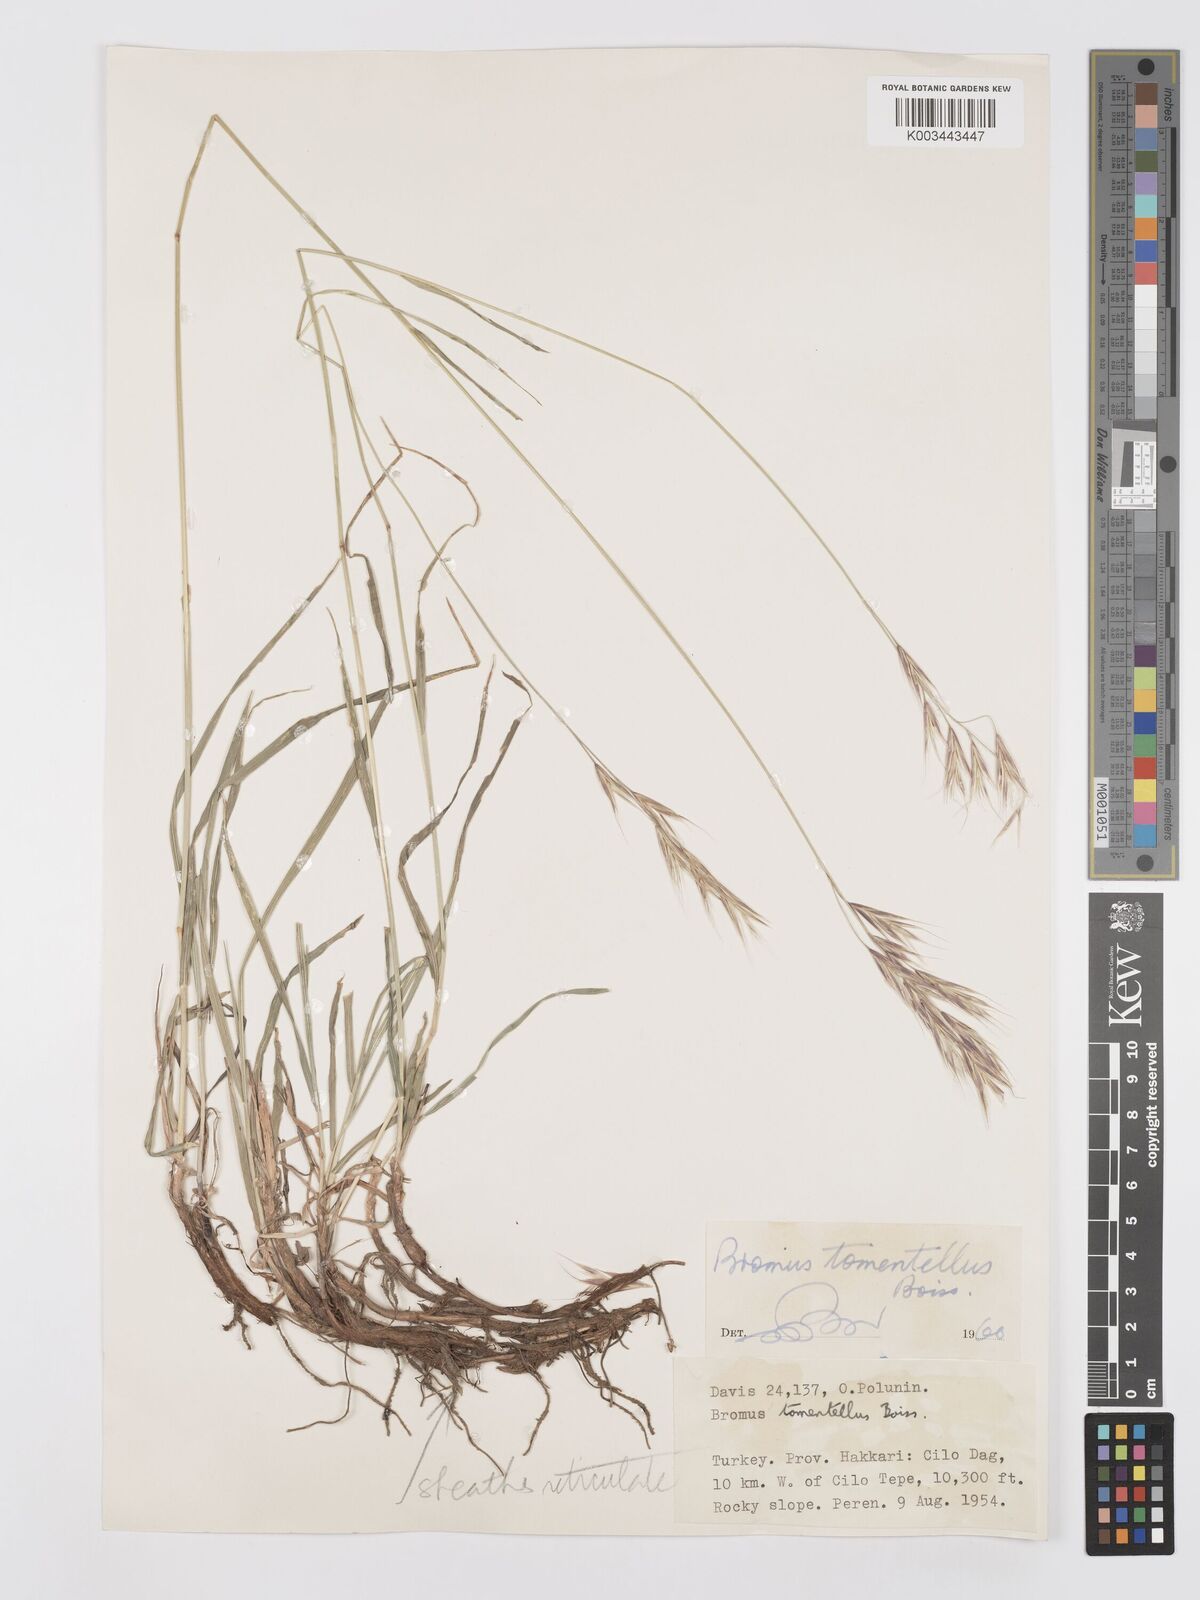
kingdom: Plantae
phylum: Tracheophyta
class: Liliopsida
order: Poales
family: Poaceae
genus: Bromus
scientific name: Bromus tomentellus
